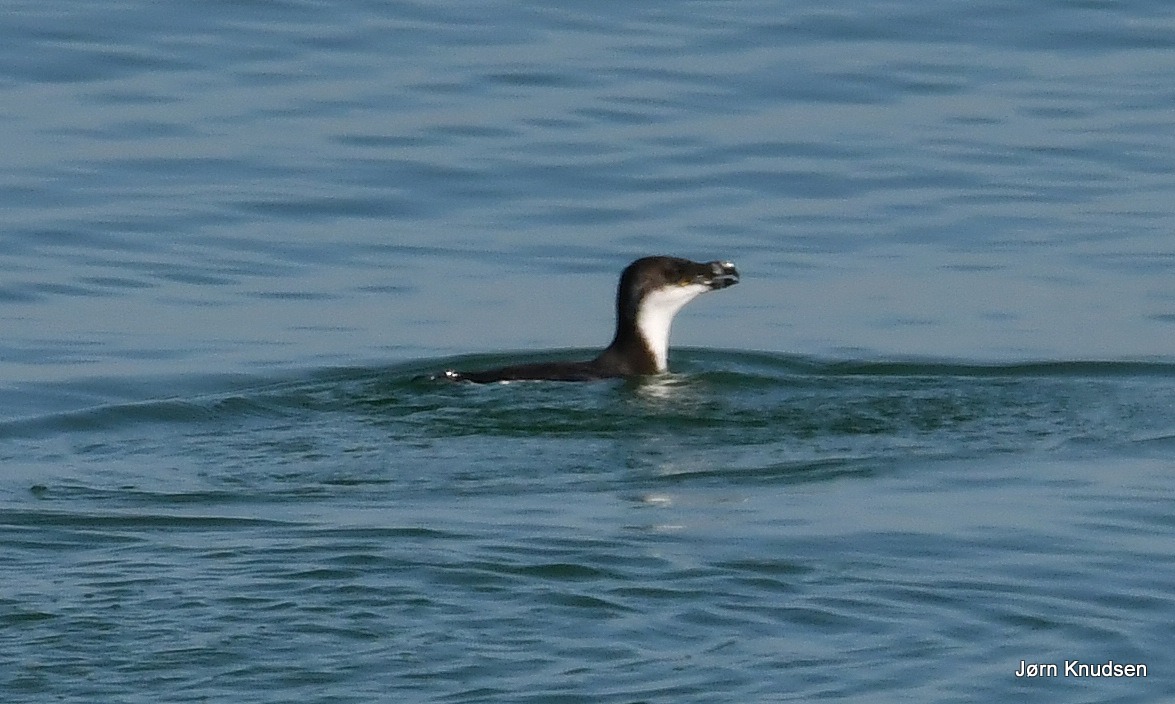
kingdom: Animalia
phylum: Chordata
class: Aves
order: Charadriiformes
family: Alcidae
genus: Alca
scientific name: Alca torda
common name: Alk
